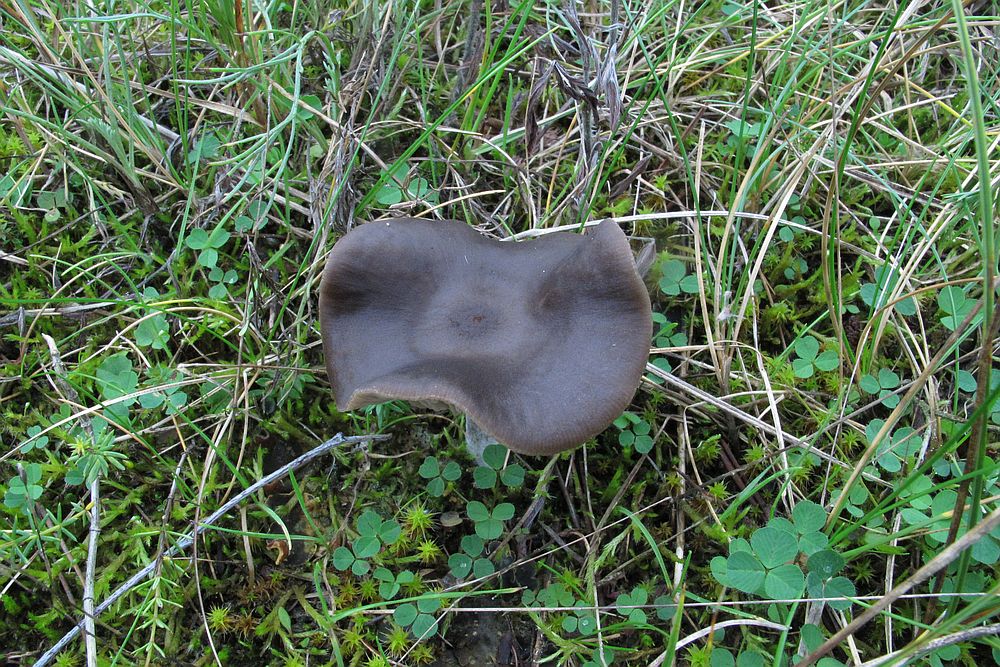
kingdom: Fungi
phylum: Basidiomycota
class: Agaricomycetes
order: Agaricales
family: Entolomataceae
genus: Entoloma
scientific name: Entoloma sericeum
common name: silkeglinsende rødblad
